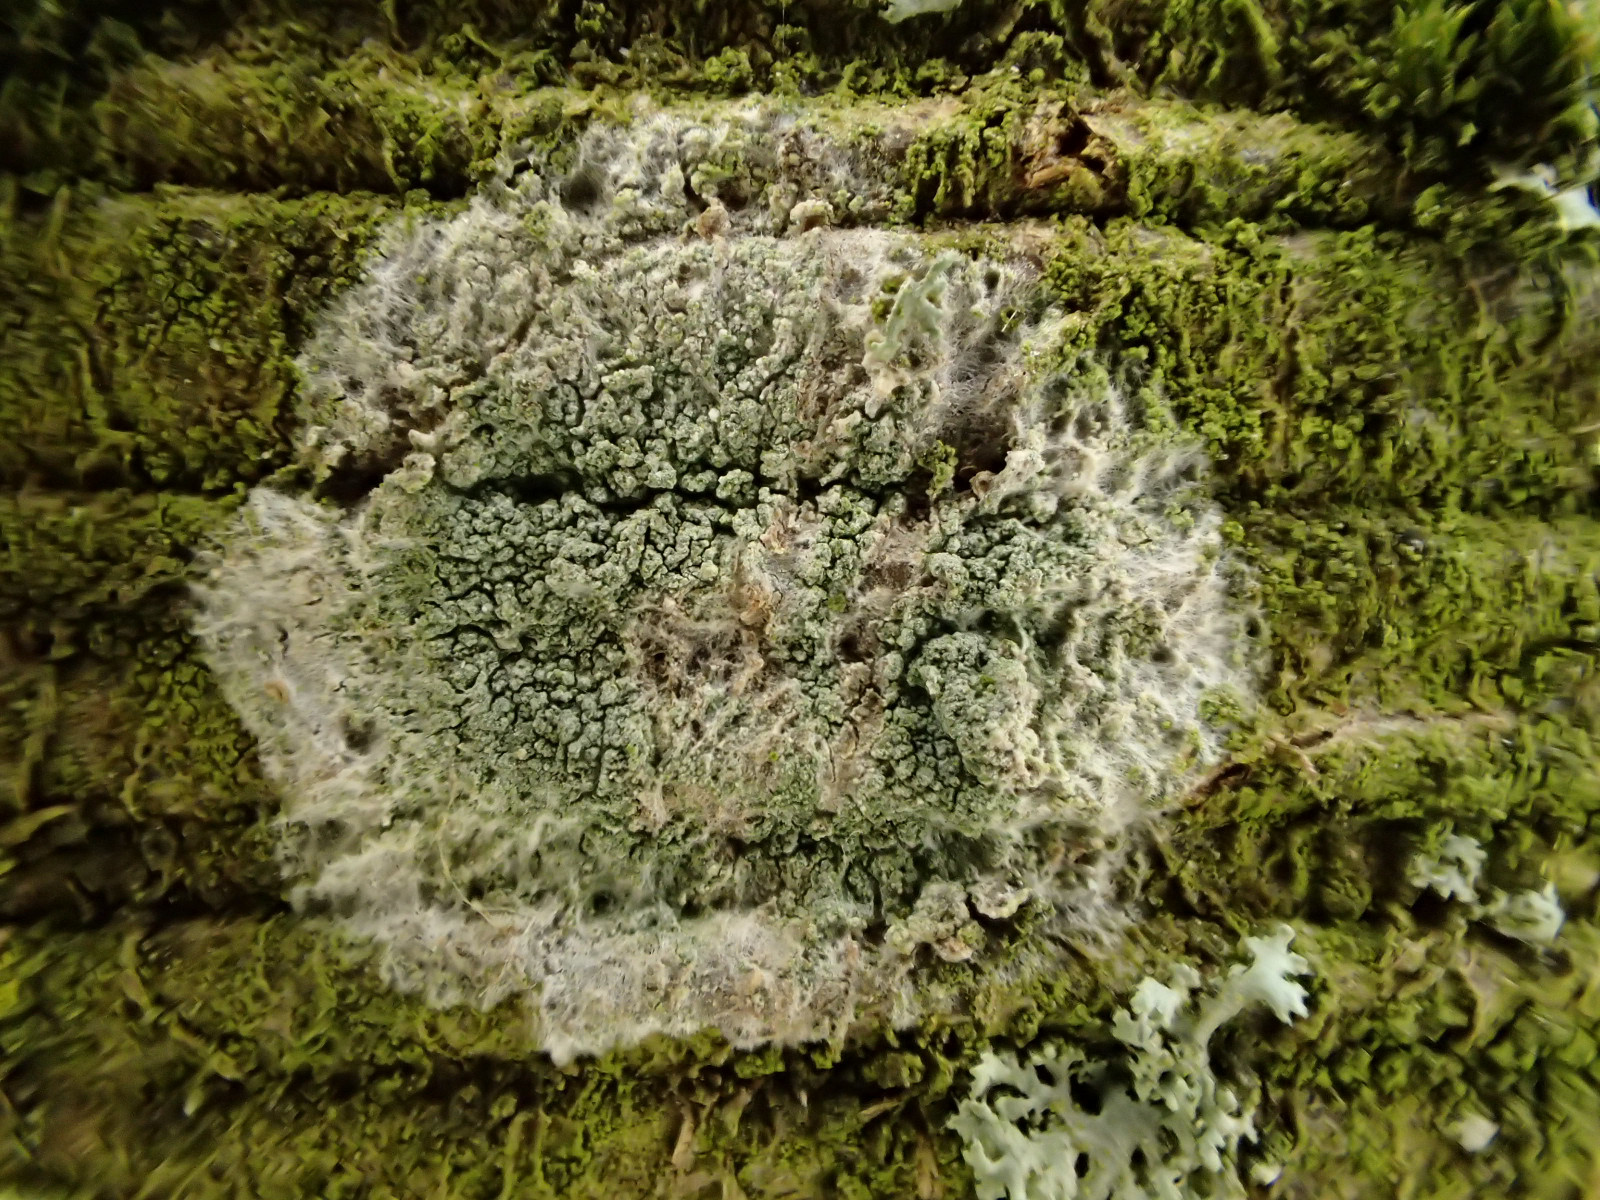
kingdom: Fungi
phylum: Ascomycota
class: Lecanoromycetes
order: Lecanorales
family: Haematommataceae
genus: Haematomma
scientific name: Haematomma ochroleucum
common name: gul trådkantlav
